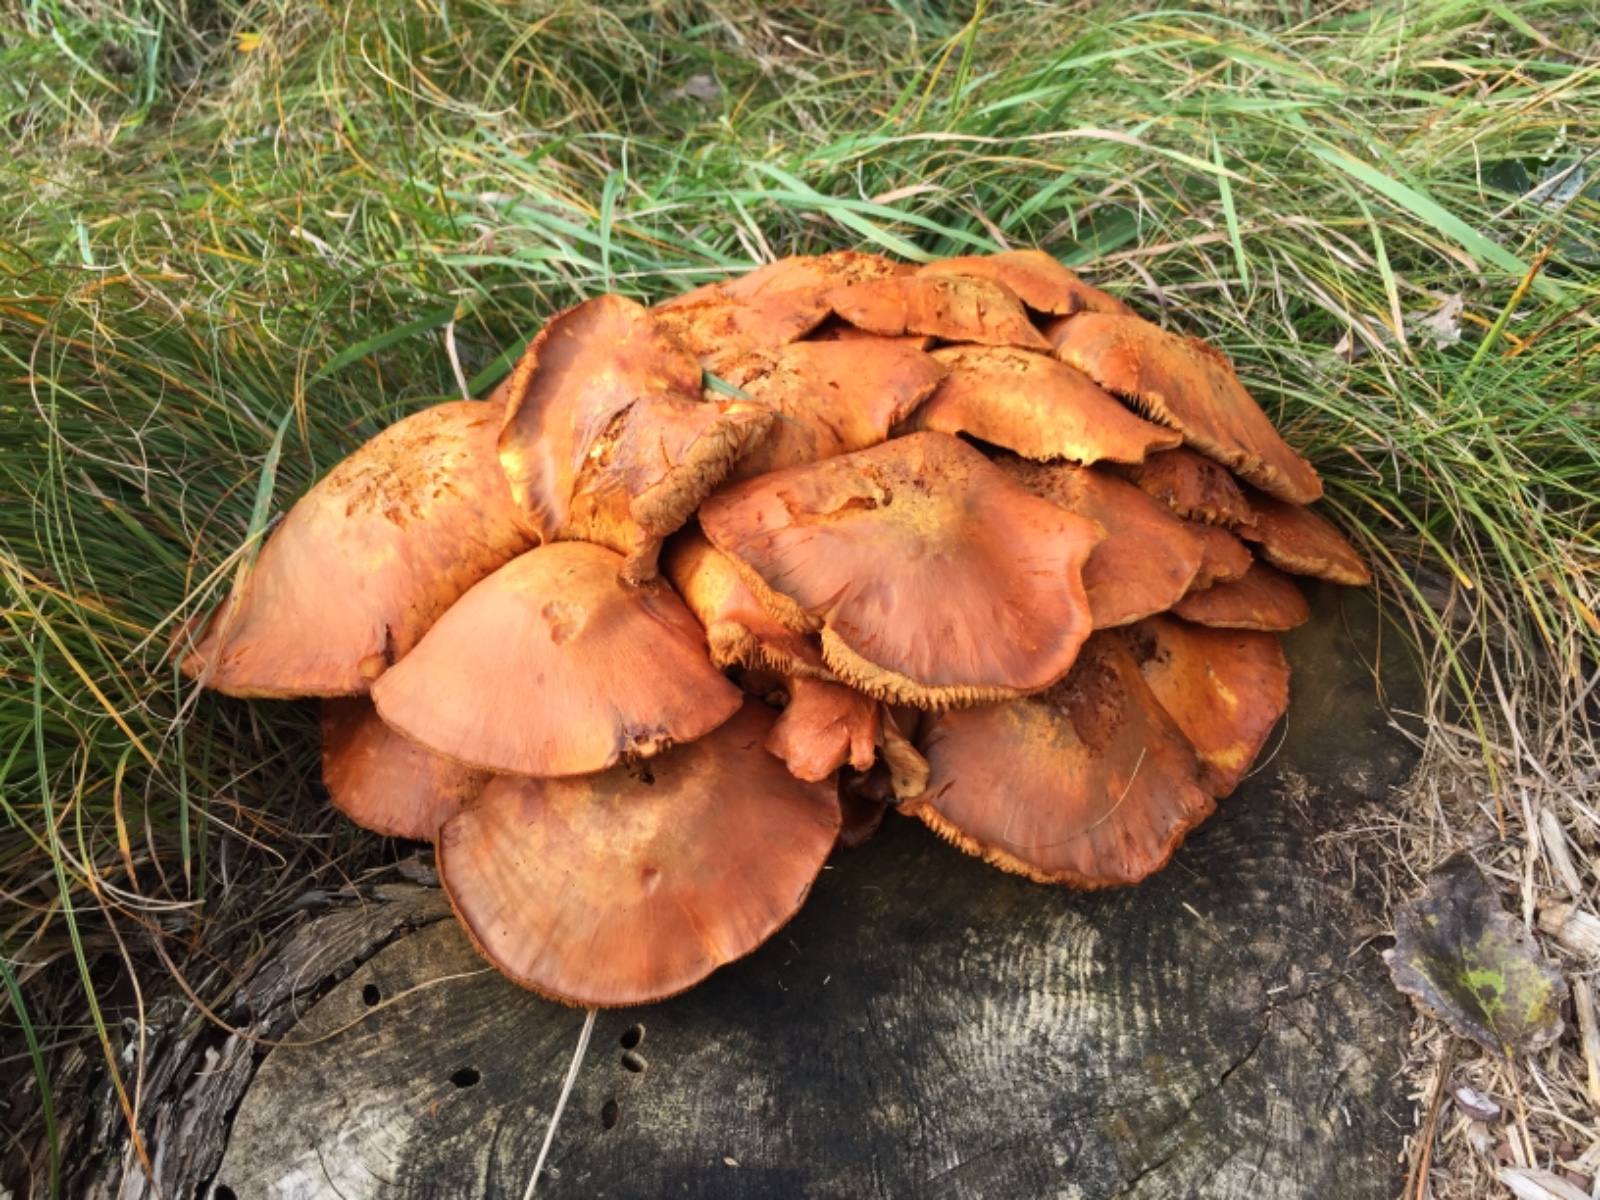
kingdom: Fungi
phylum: Basidiomycota
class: Agaricomycetes
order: Agaricales
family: Hymenogastraceae
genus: Gymnopilus
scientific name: Gymnopilus spectabilis
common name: fibret flammehat
